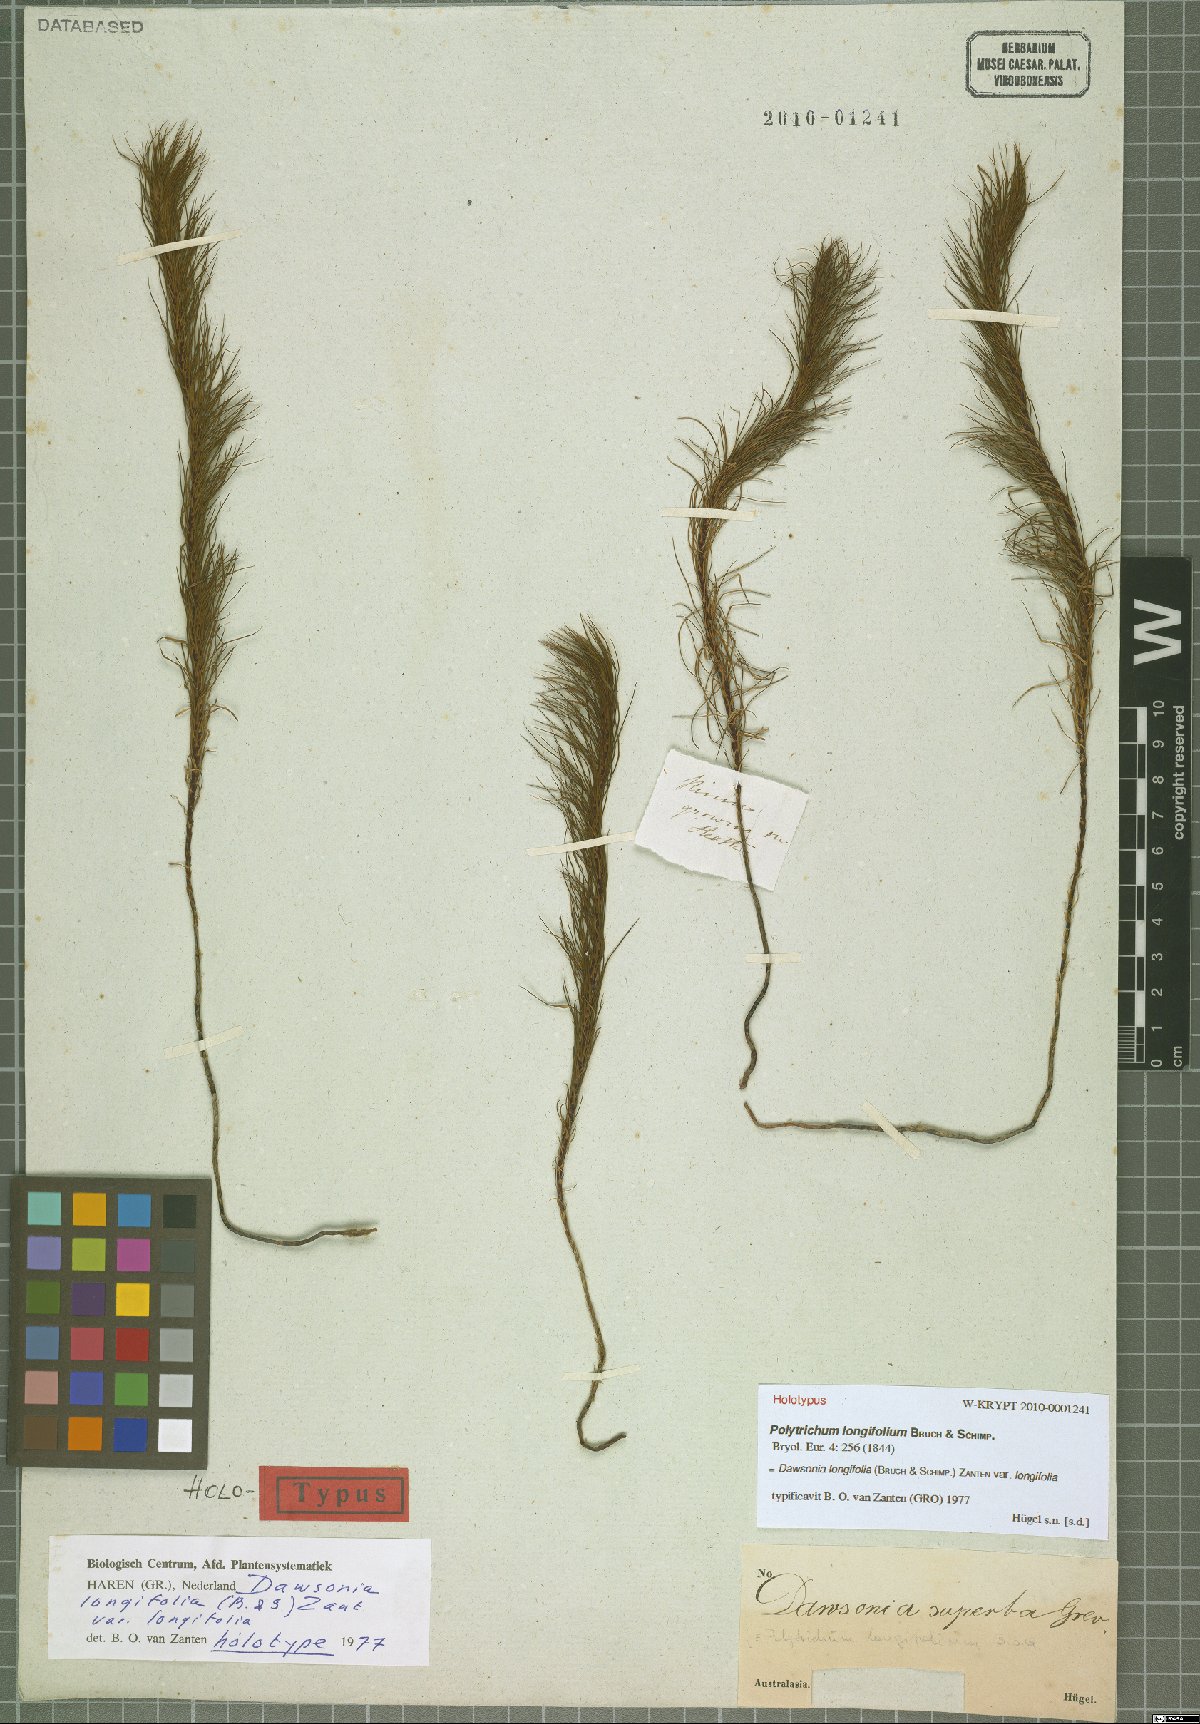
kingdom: Plantae
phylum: Bryophyta
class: Polytrichopsida
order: Polytrichales
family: Polytrichaceae
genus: Dawsonia
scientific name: Dawsonia superba
